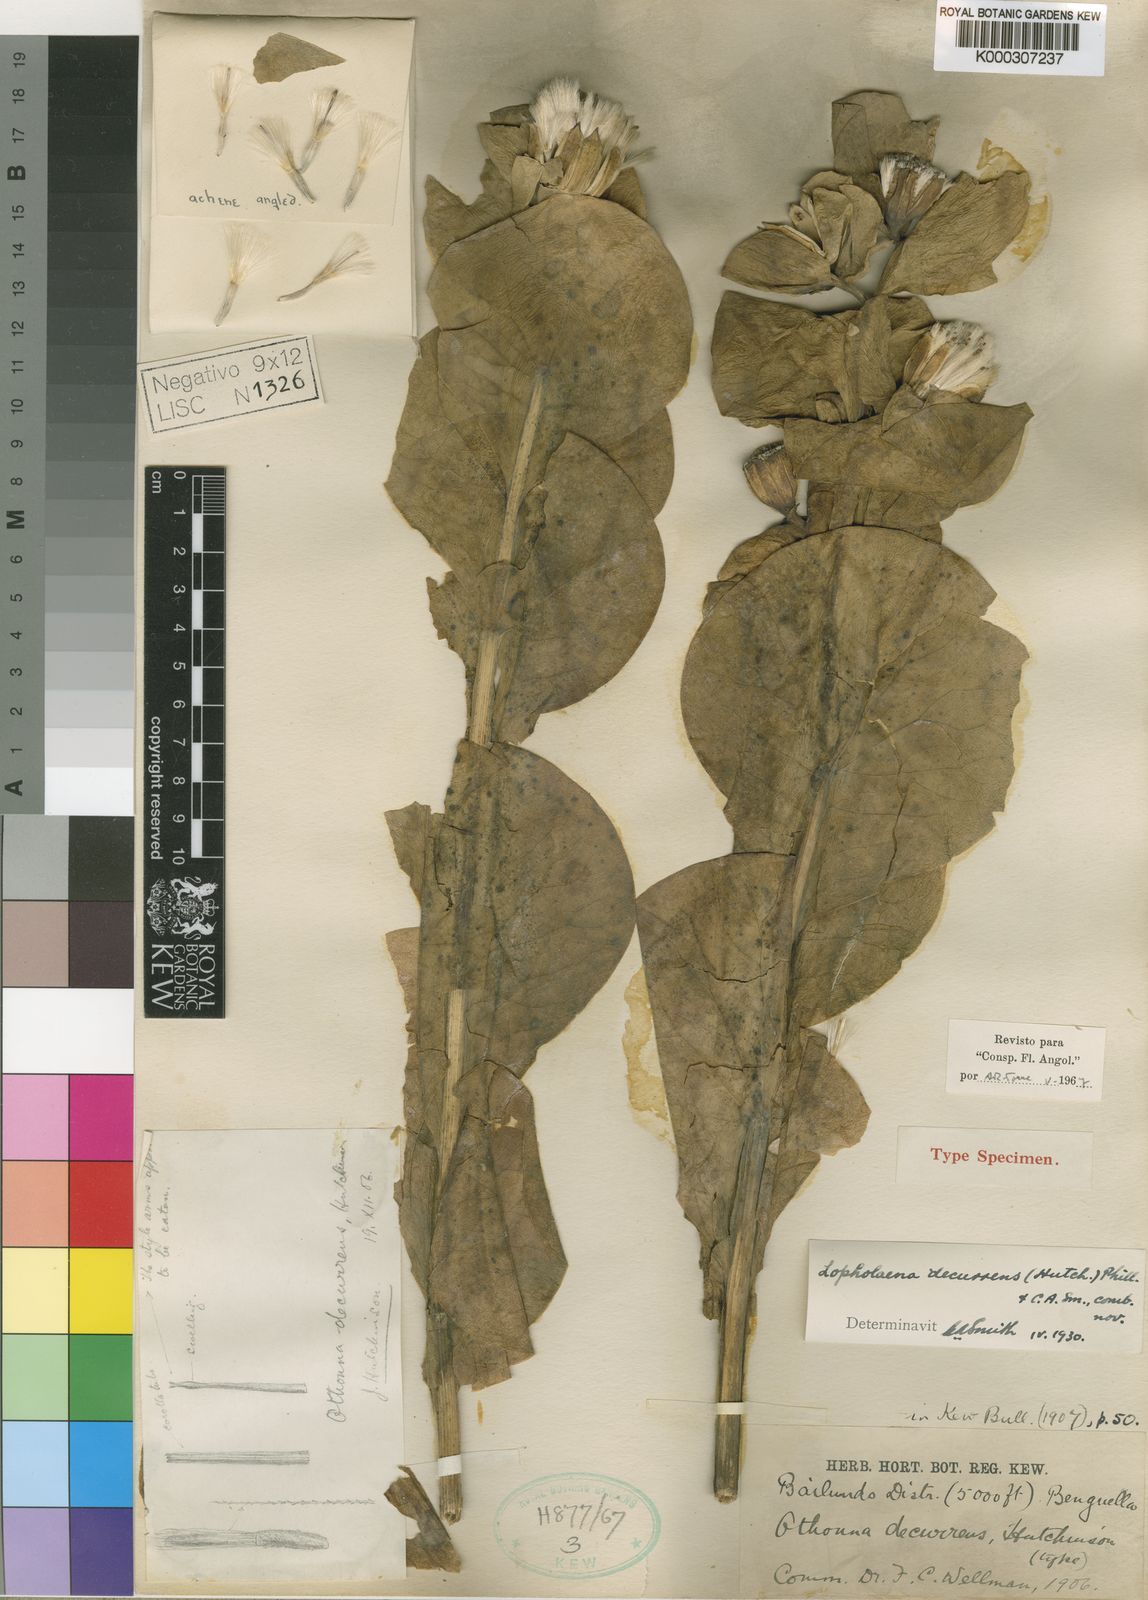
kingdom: Plantae
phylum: Tracheophyta
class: Magnoliopsida
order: Asterales
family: Asteraceae
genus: Lopholaena
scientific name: Lopholaena decurrens
